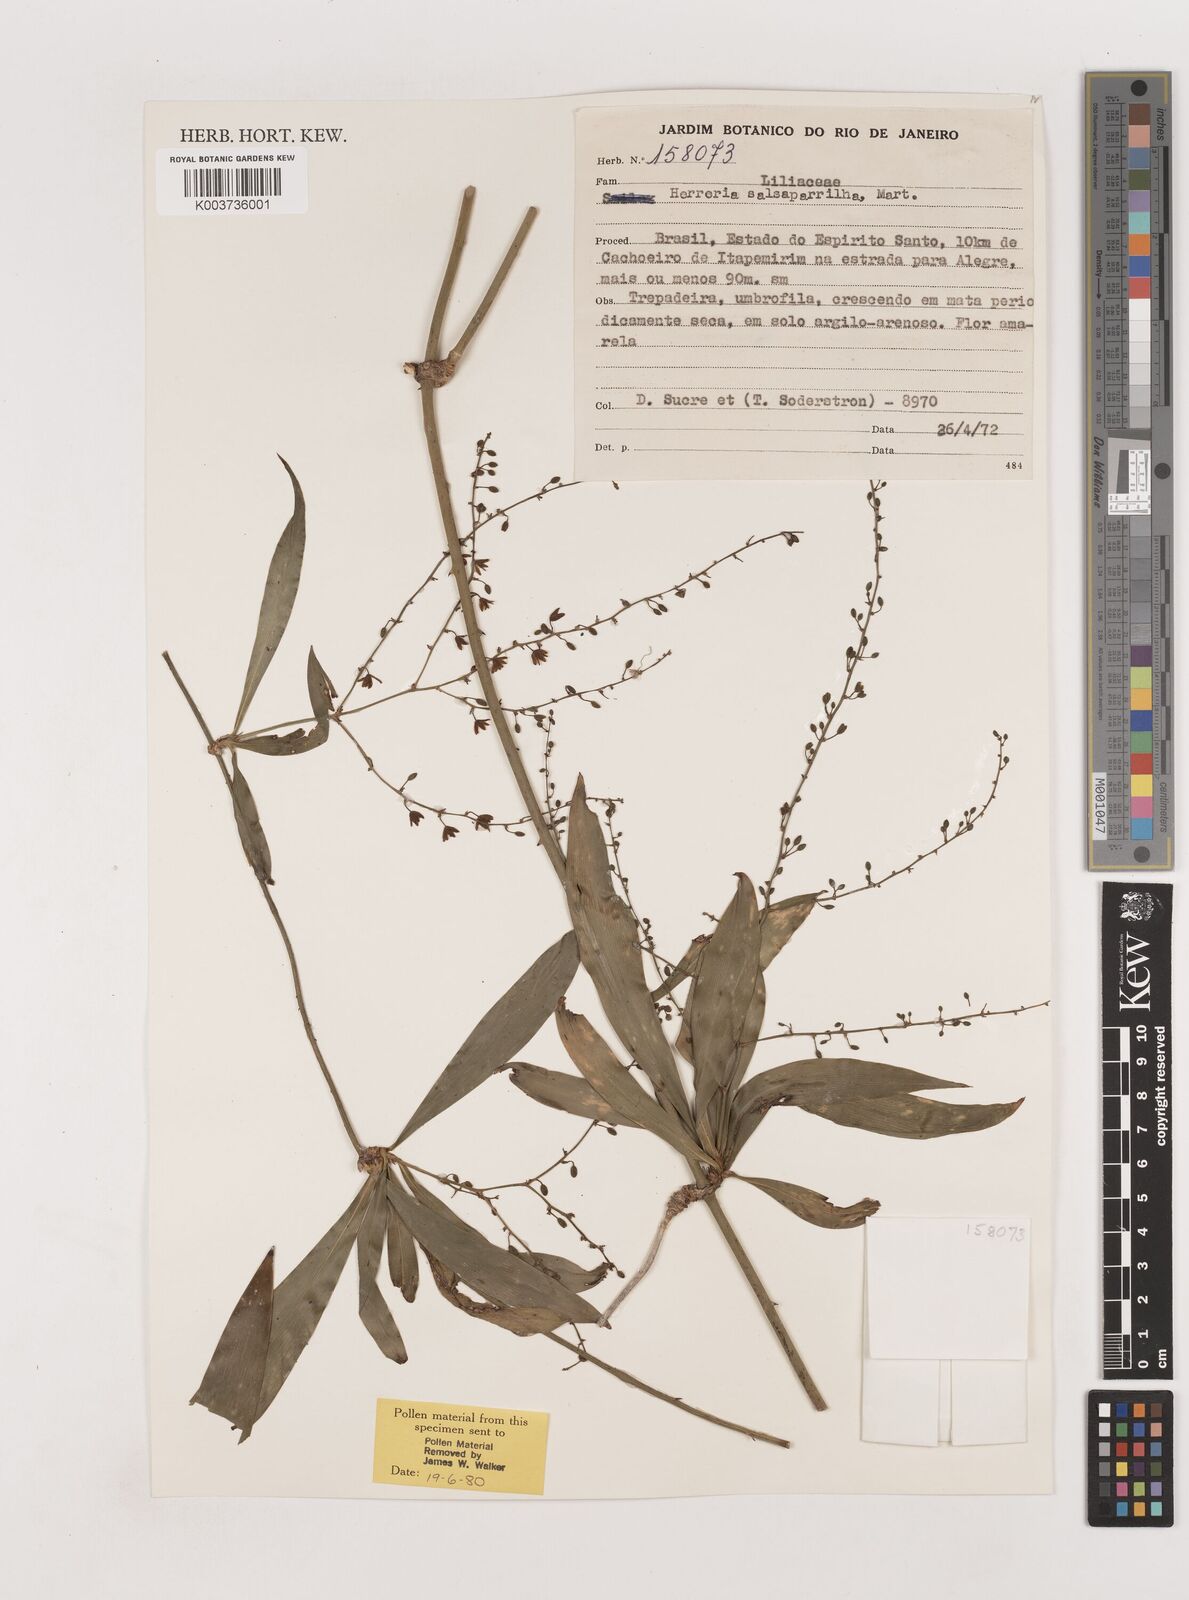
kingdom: Plantae
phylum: Tracheophyta
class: Liliopsida
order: Asparagales
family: Asparagaceae
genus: Herreria
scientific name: Herreria salsaparilha
